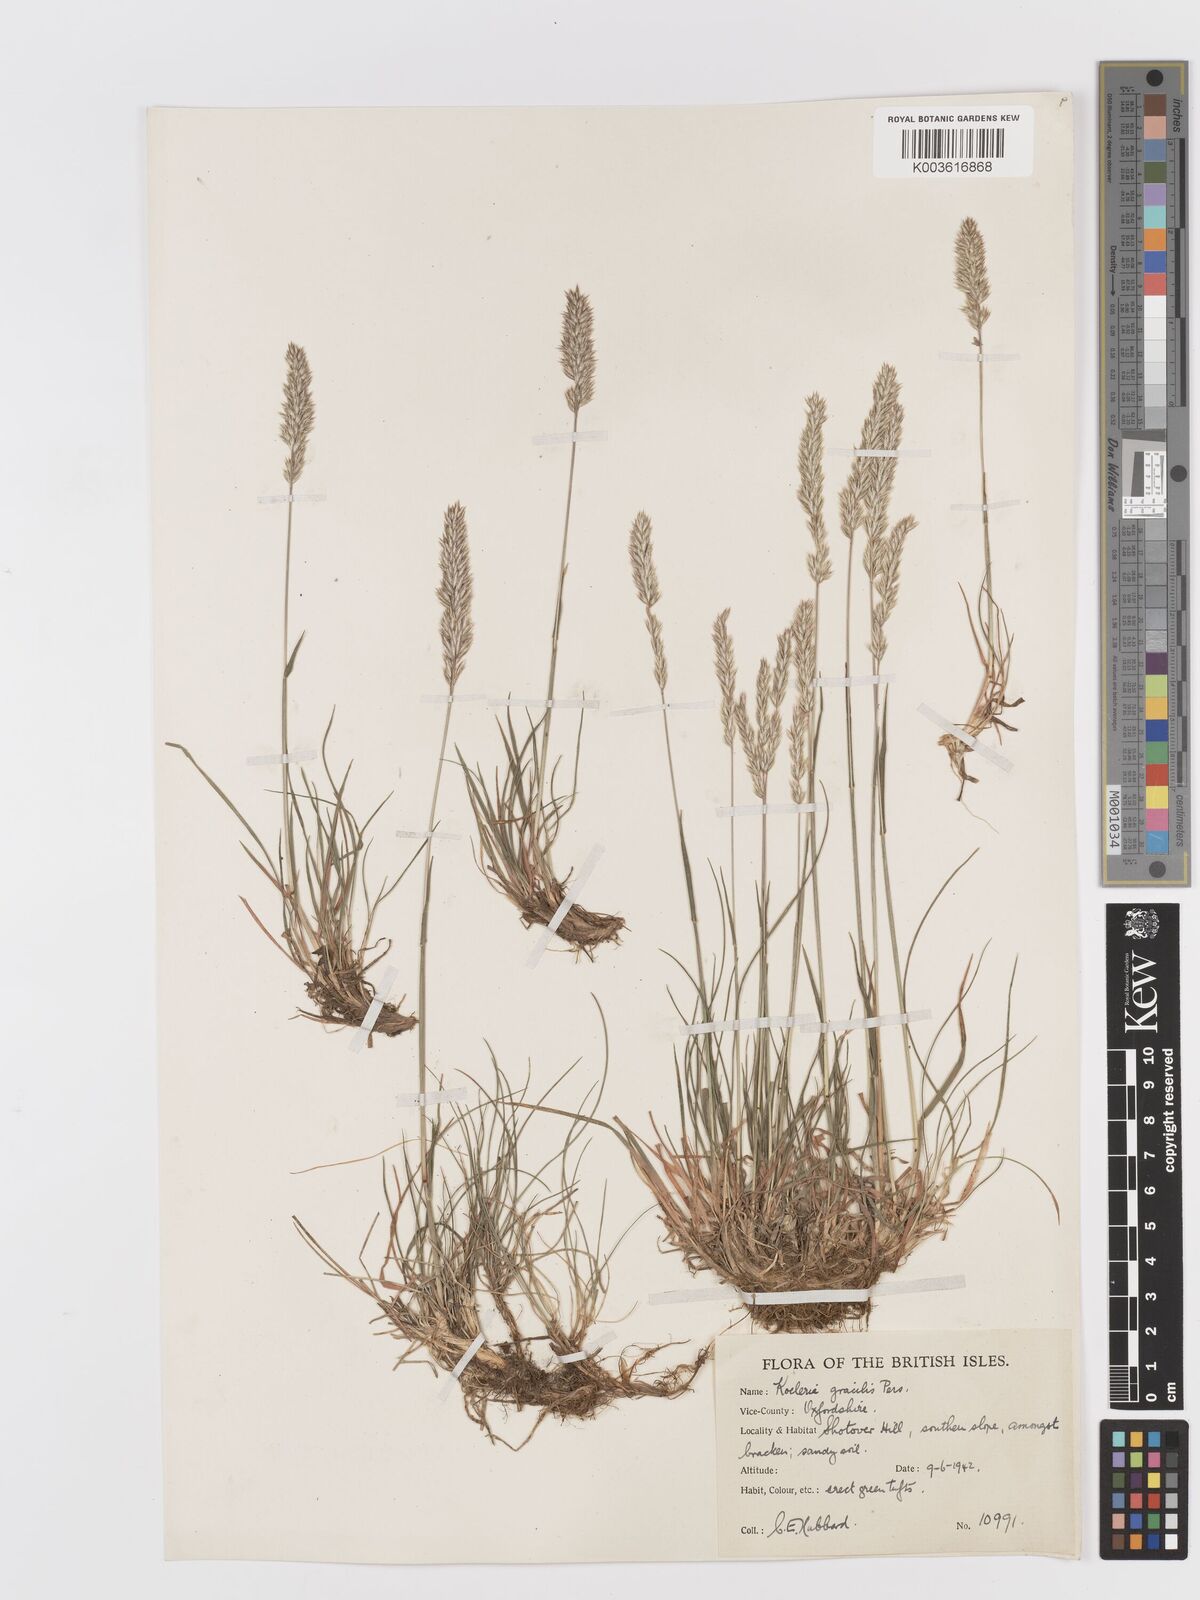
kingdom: Plantae
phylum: Tracheophyta
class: Liliopsida
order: Poales
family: Poaceae
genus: Koeleria
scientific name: Koeleria macrantha
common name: Crested hair-grass
